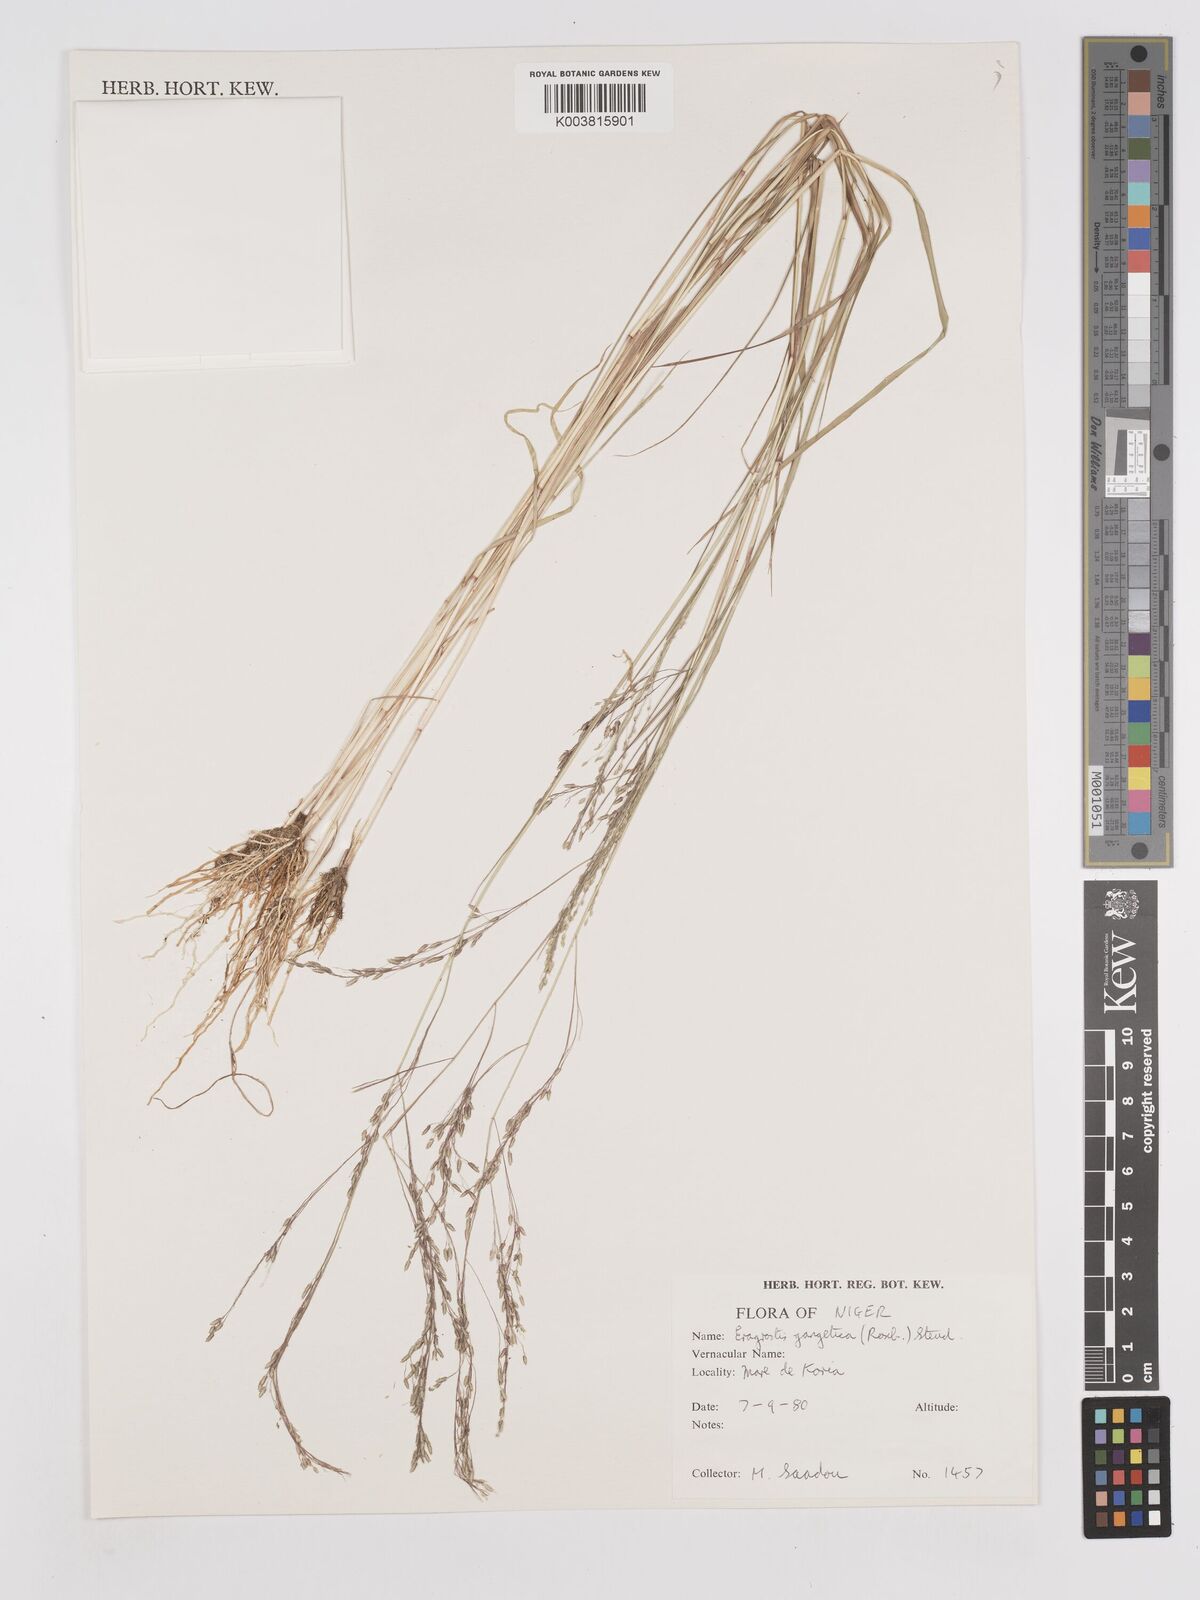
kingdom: Plantae
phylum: Tracheophyta
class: Liliopsida
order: Poales
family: Poaceae
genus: Eragrostis
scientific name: Eragrostis gangetica
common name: Slimflower lovegrass
